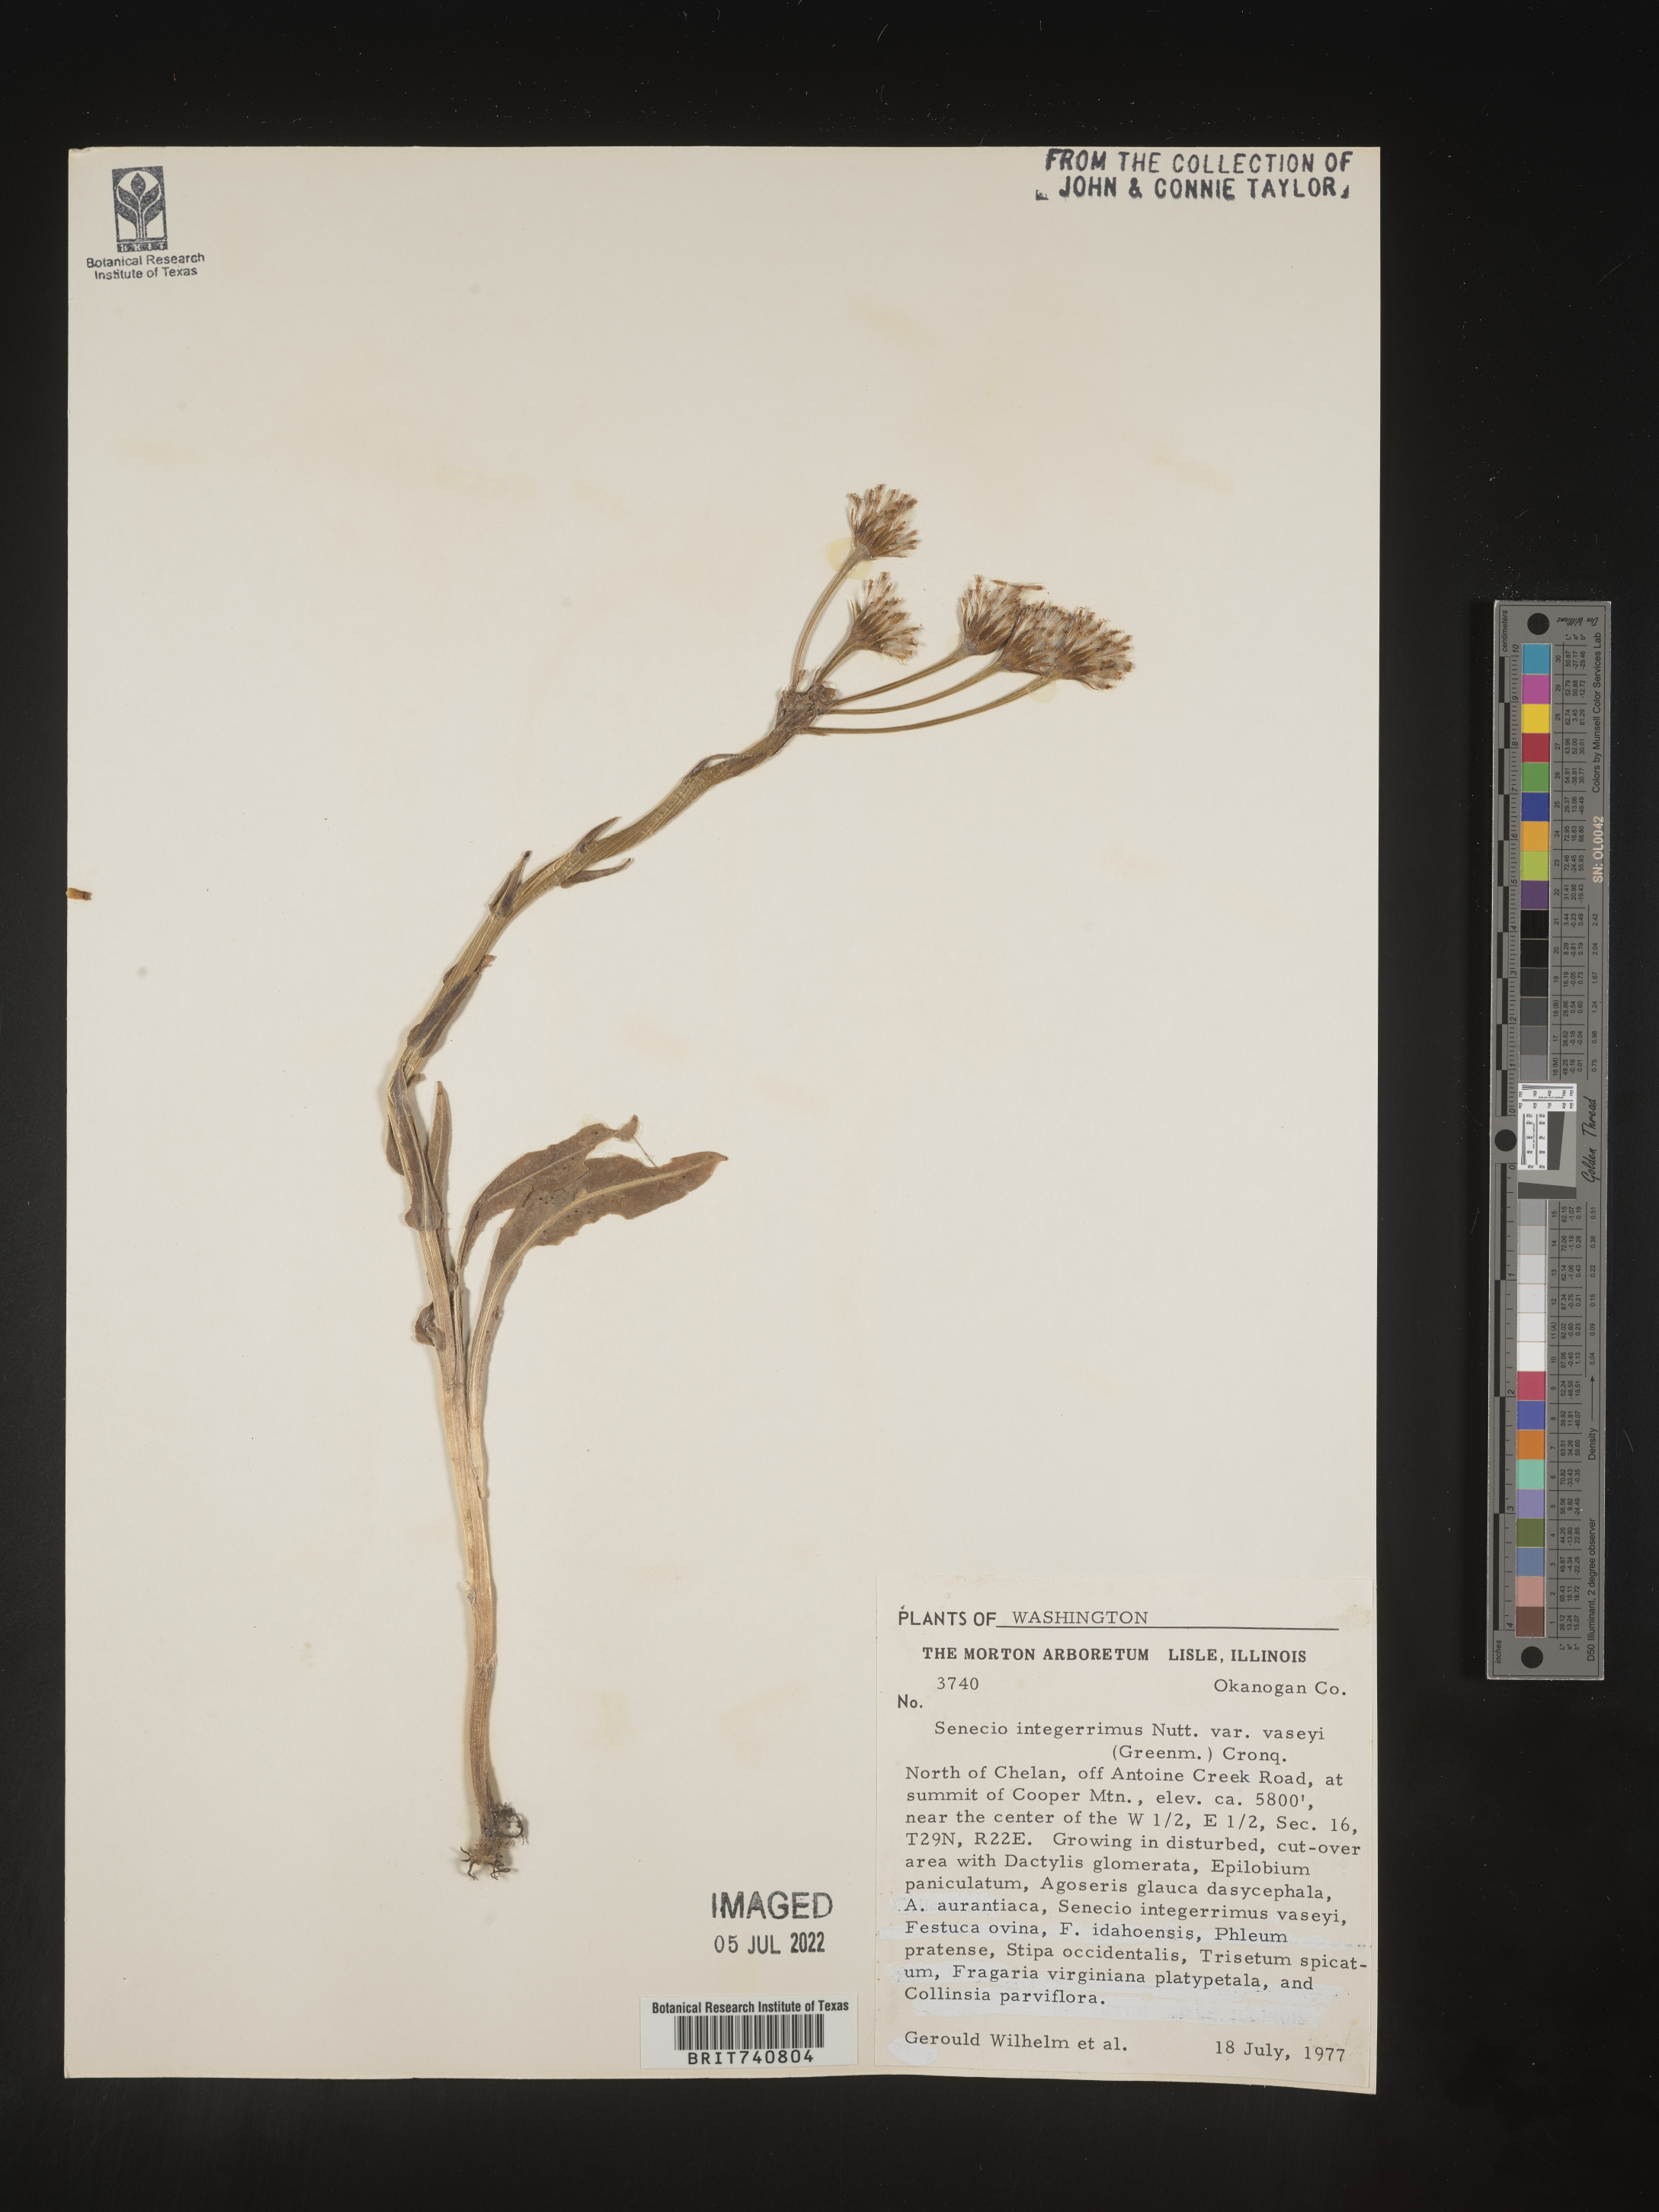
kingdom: Plantae
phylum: Tracheophyta
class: Magnoliopsida
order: Asterales
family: Asteraceae
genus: Senecio
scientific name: Senecio integerrimus
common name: Gaugeplant
